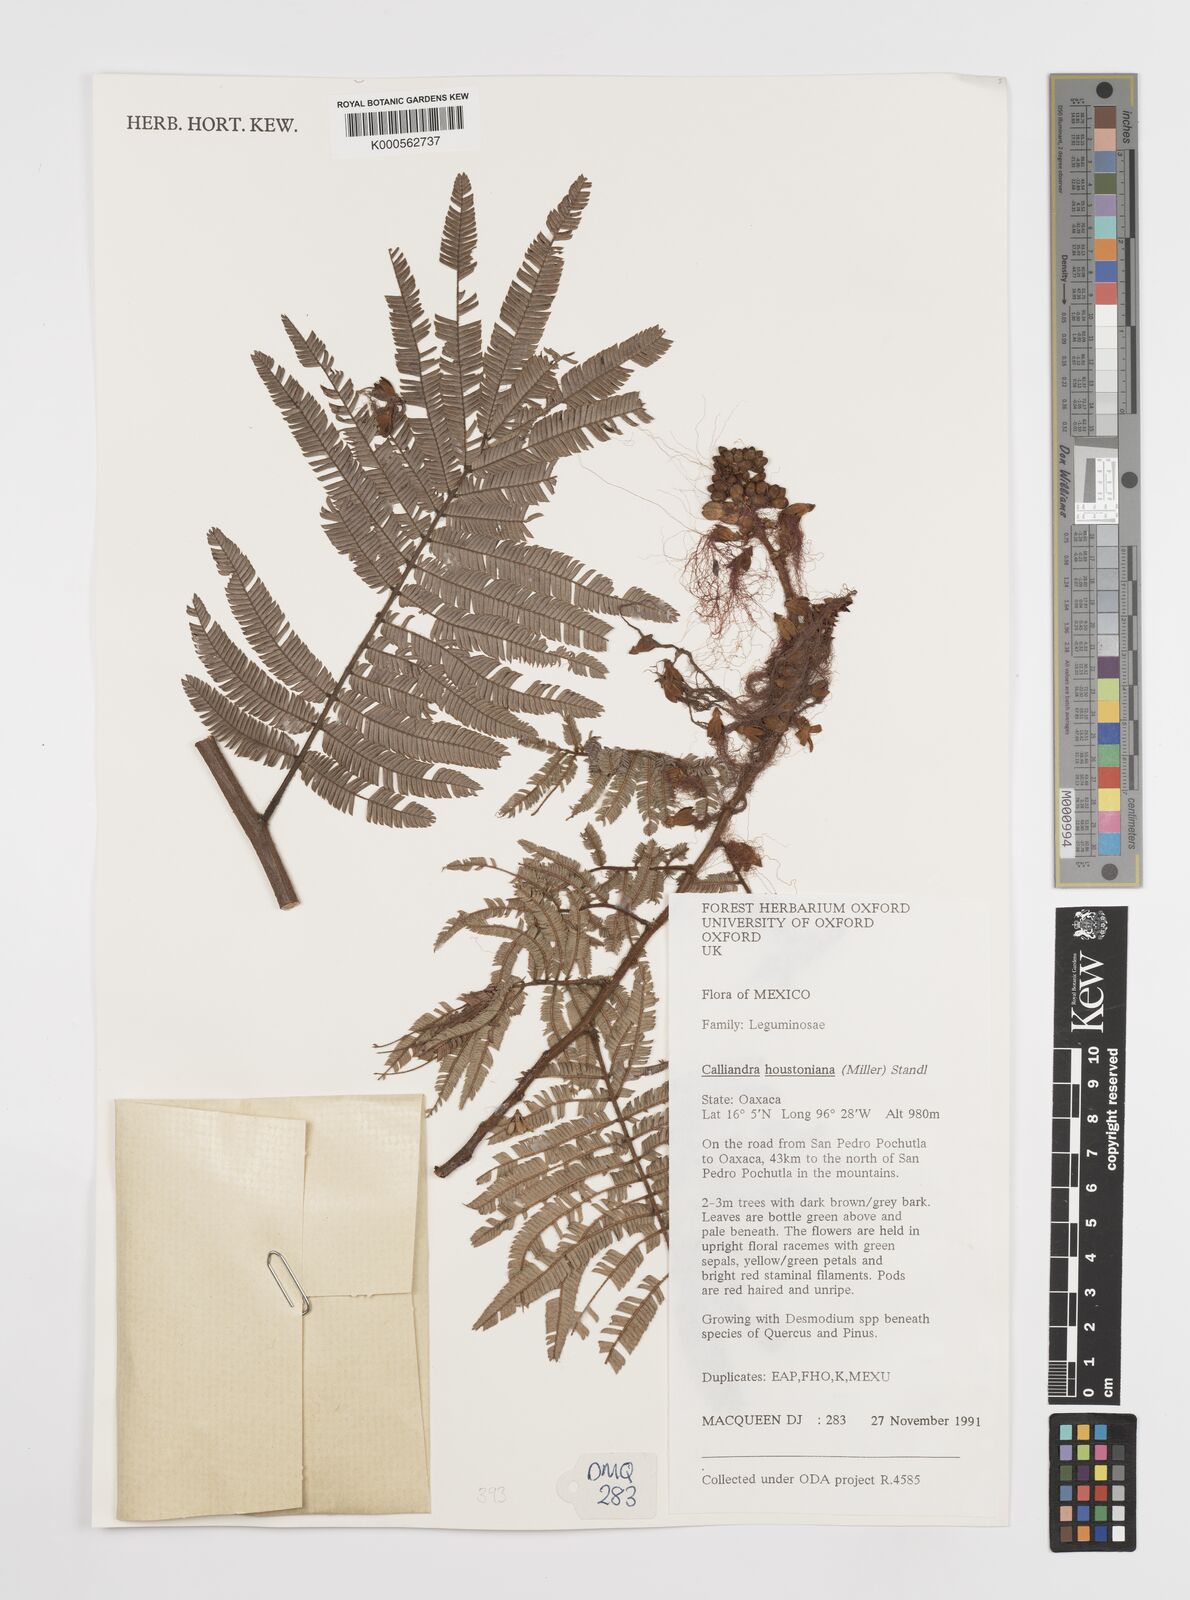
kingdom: Plantae
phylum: Tracheophyta
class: Magnoliopsida
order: Fabales
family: Fabaceae
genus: Calliandra
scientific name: Calliandra houstoniana
